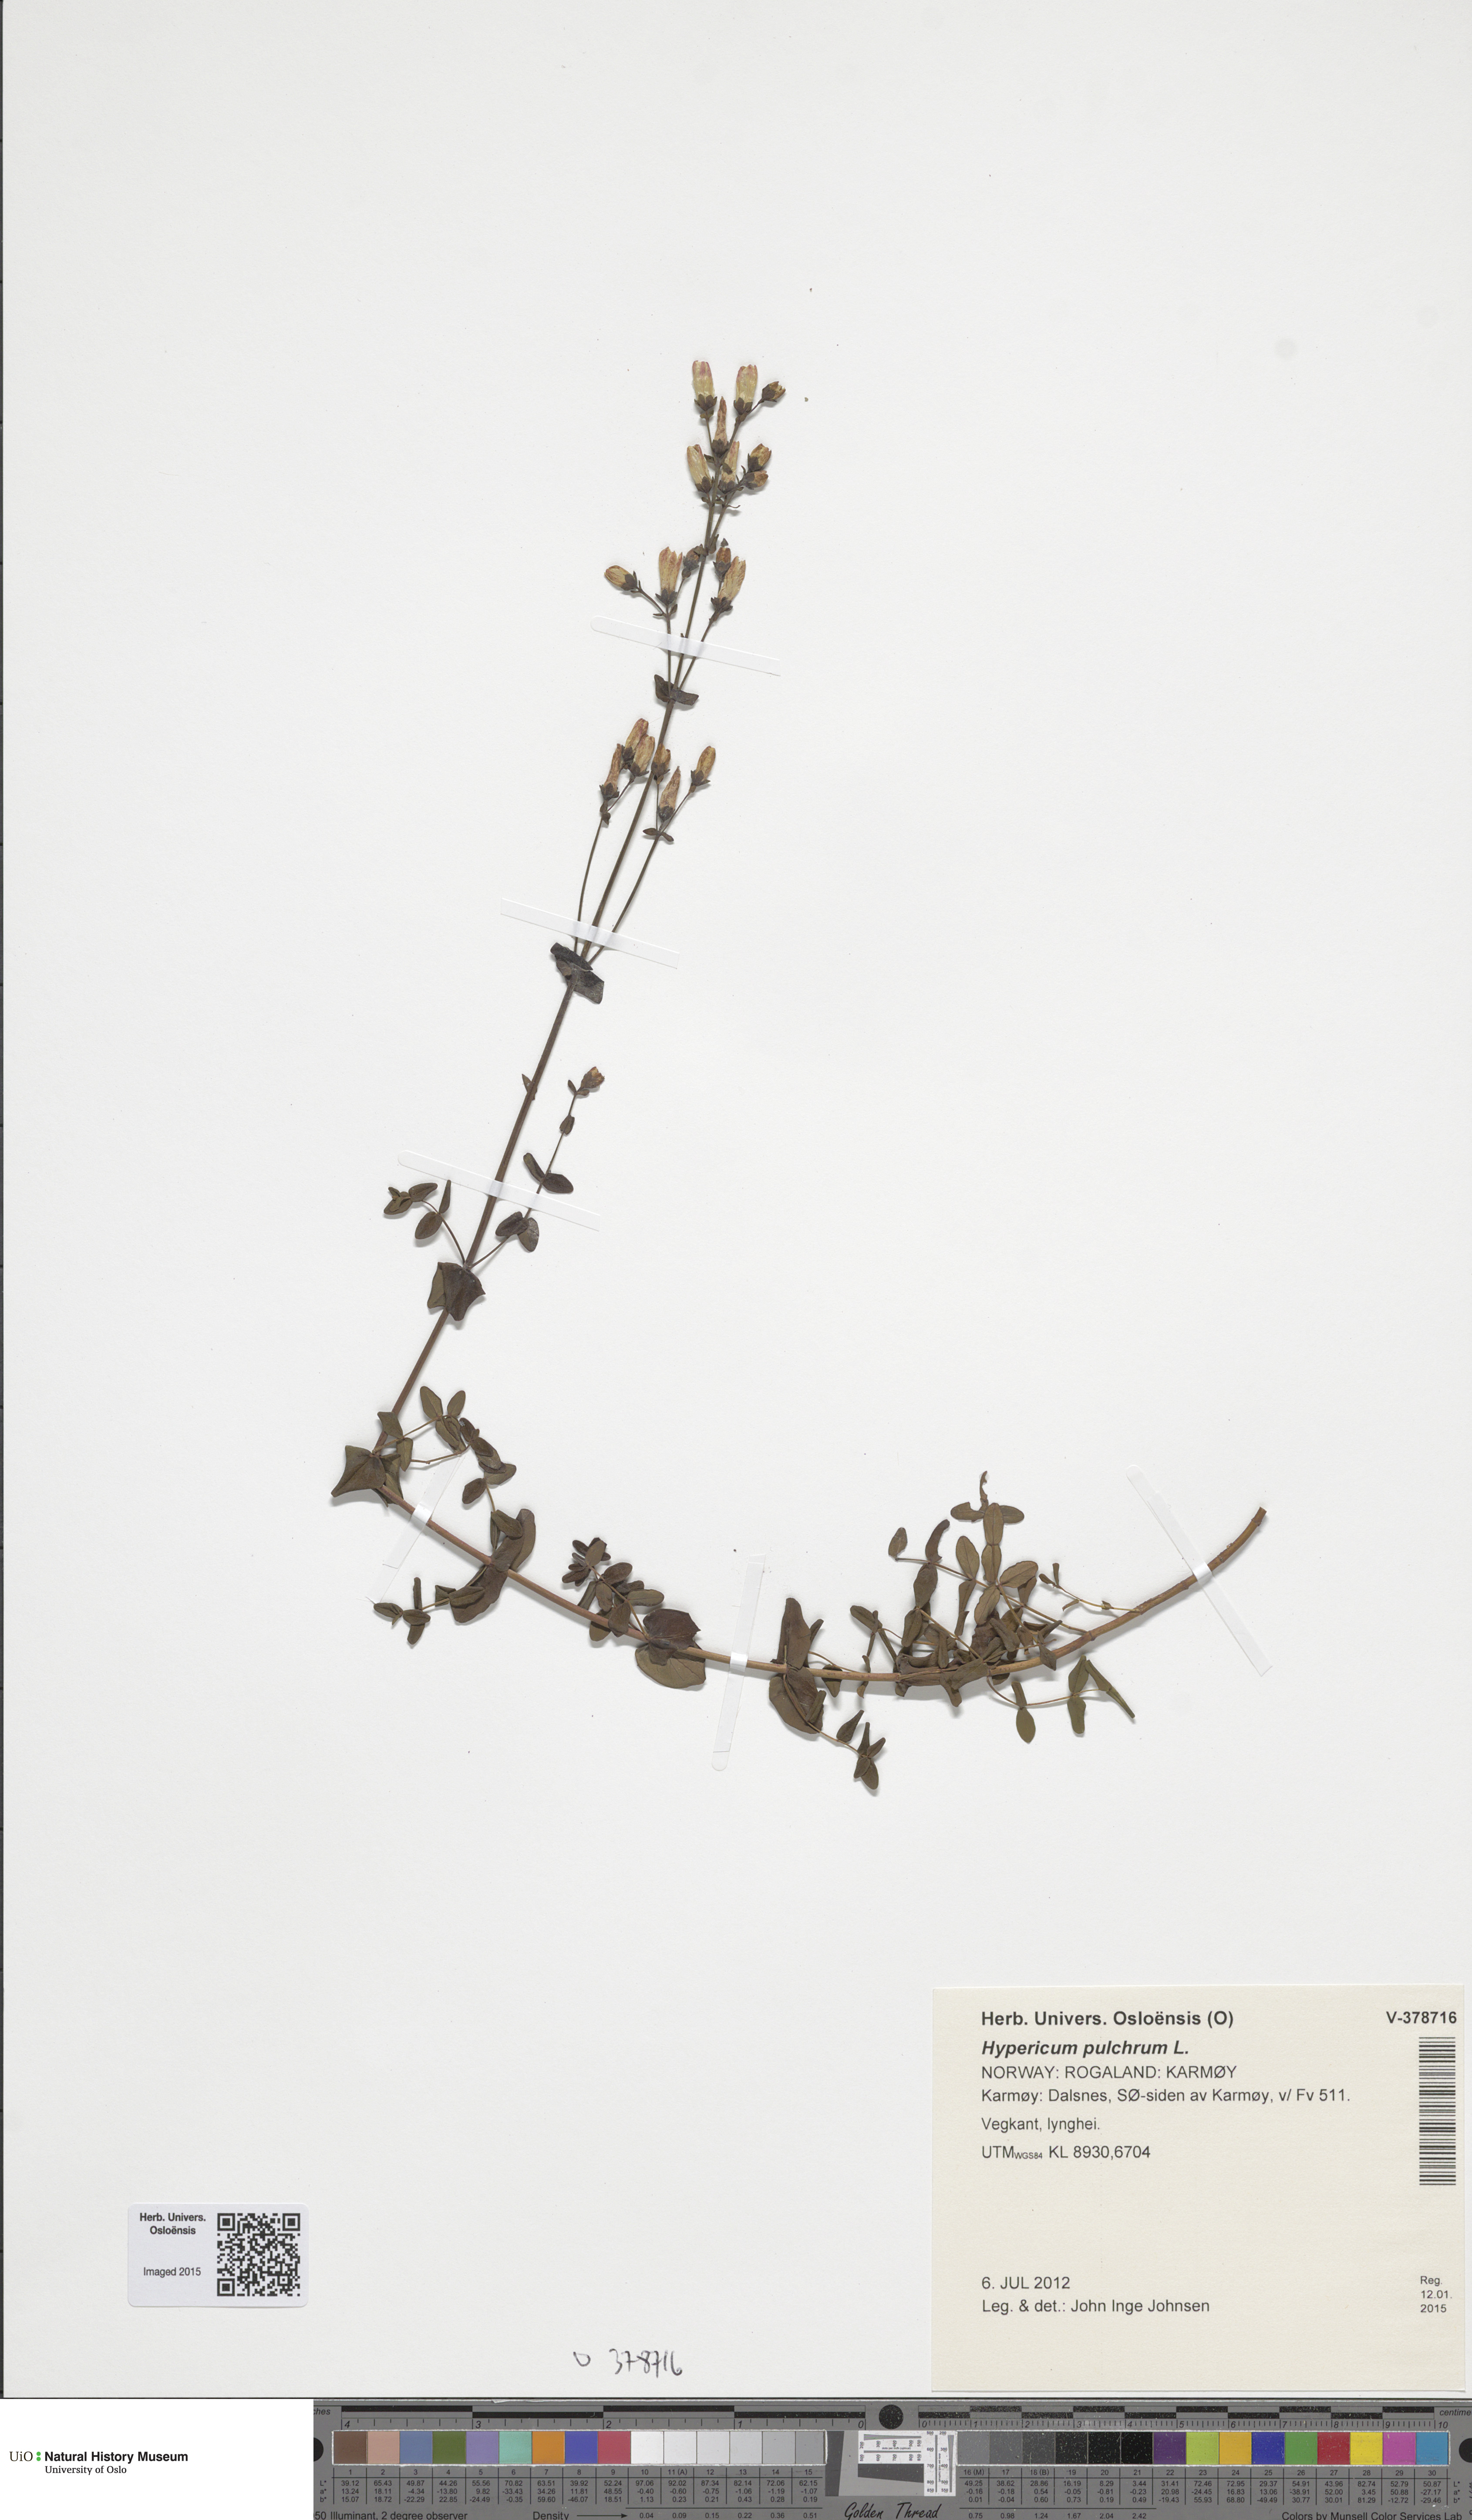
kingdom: Plantae
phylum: Tracheophyta
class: Magnoliopsida
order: Malpighiales
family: Hypericaceae
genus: Hypericum
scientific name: Hypericum pulchrum
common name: Slender st. john's-wort
